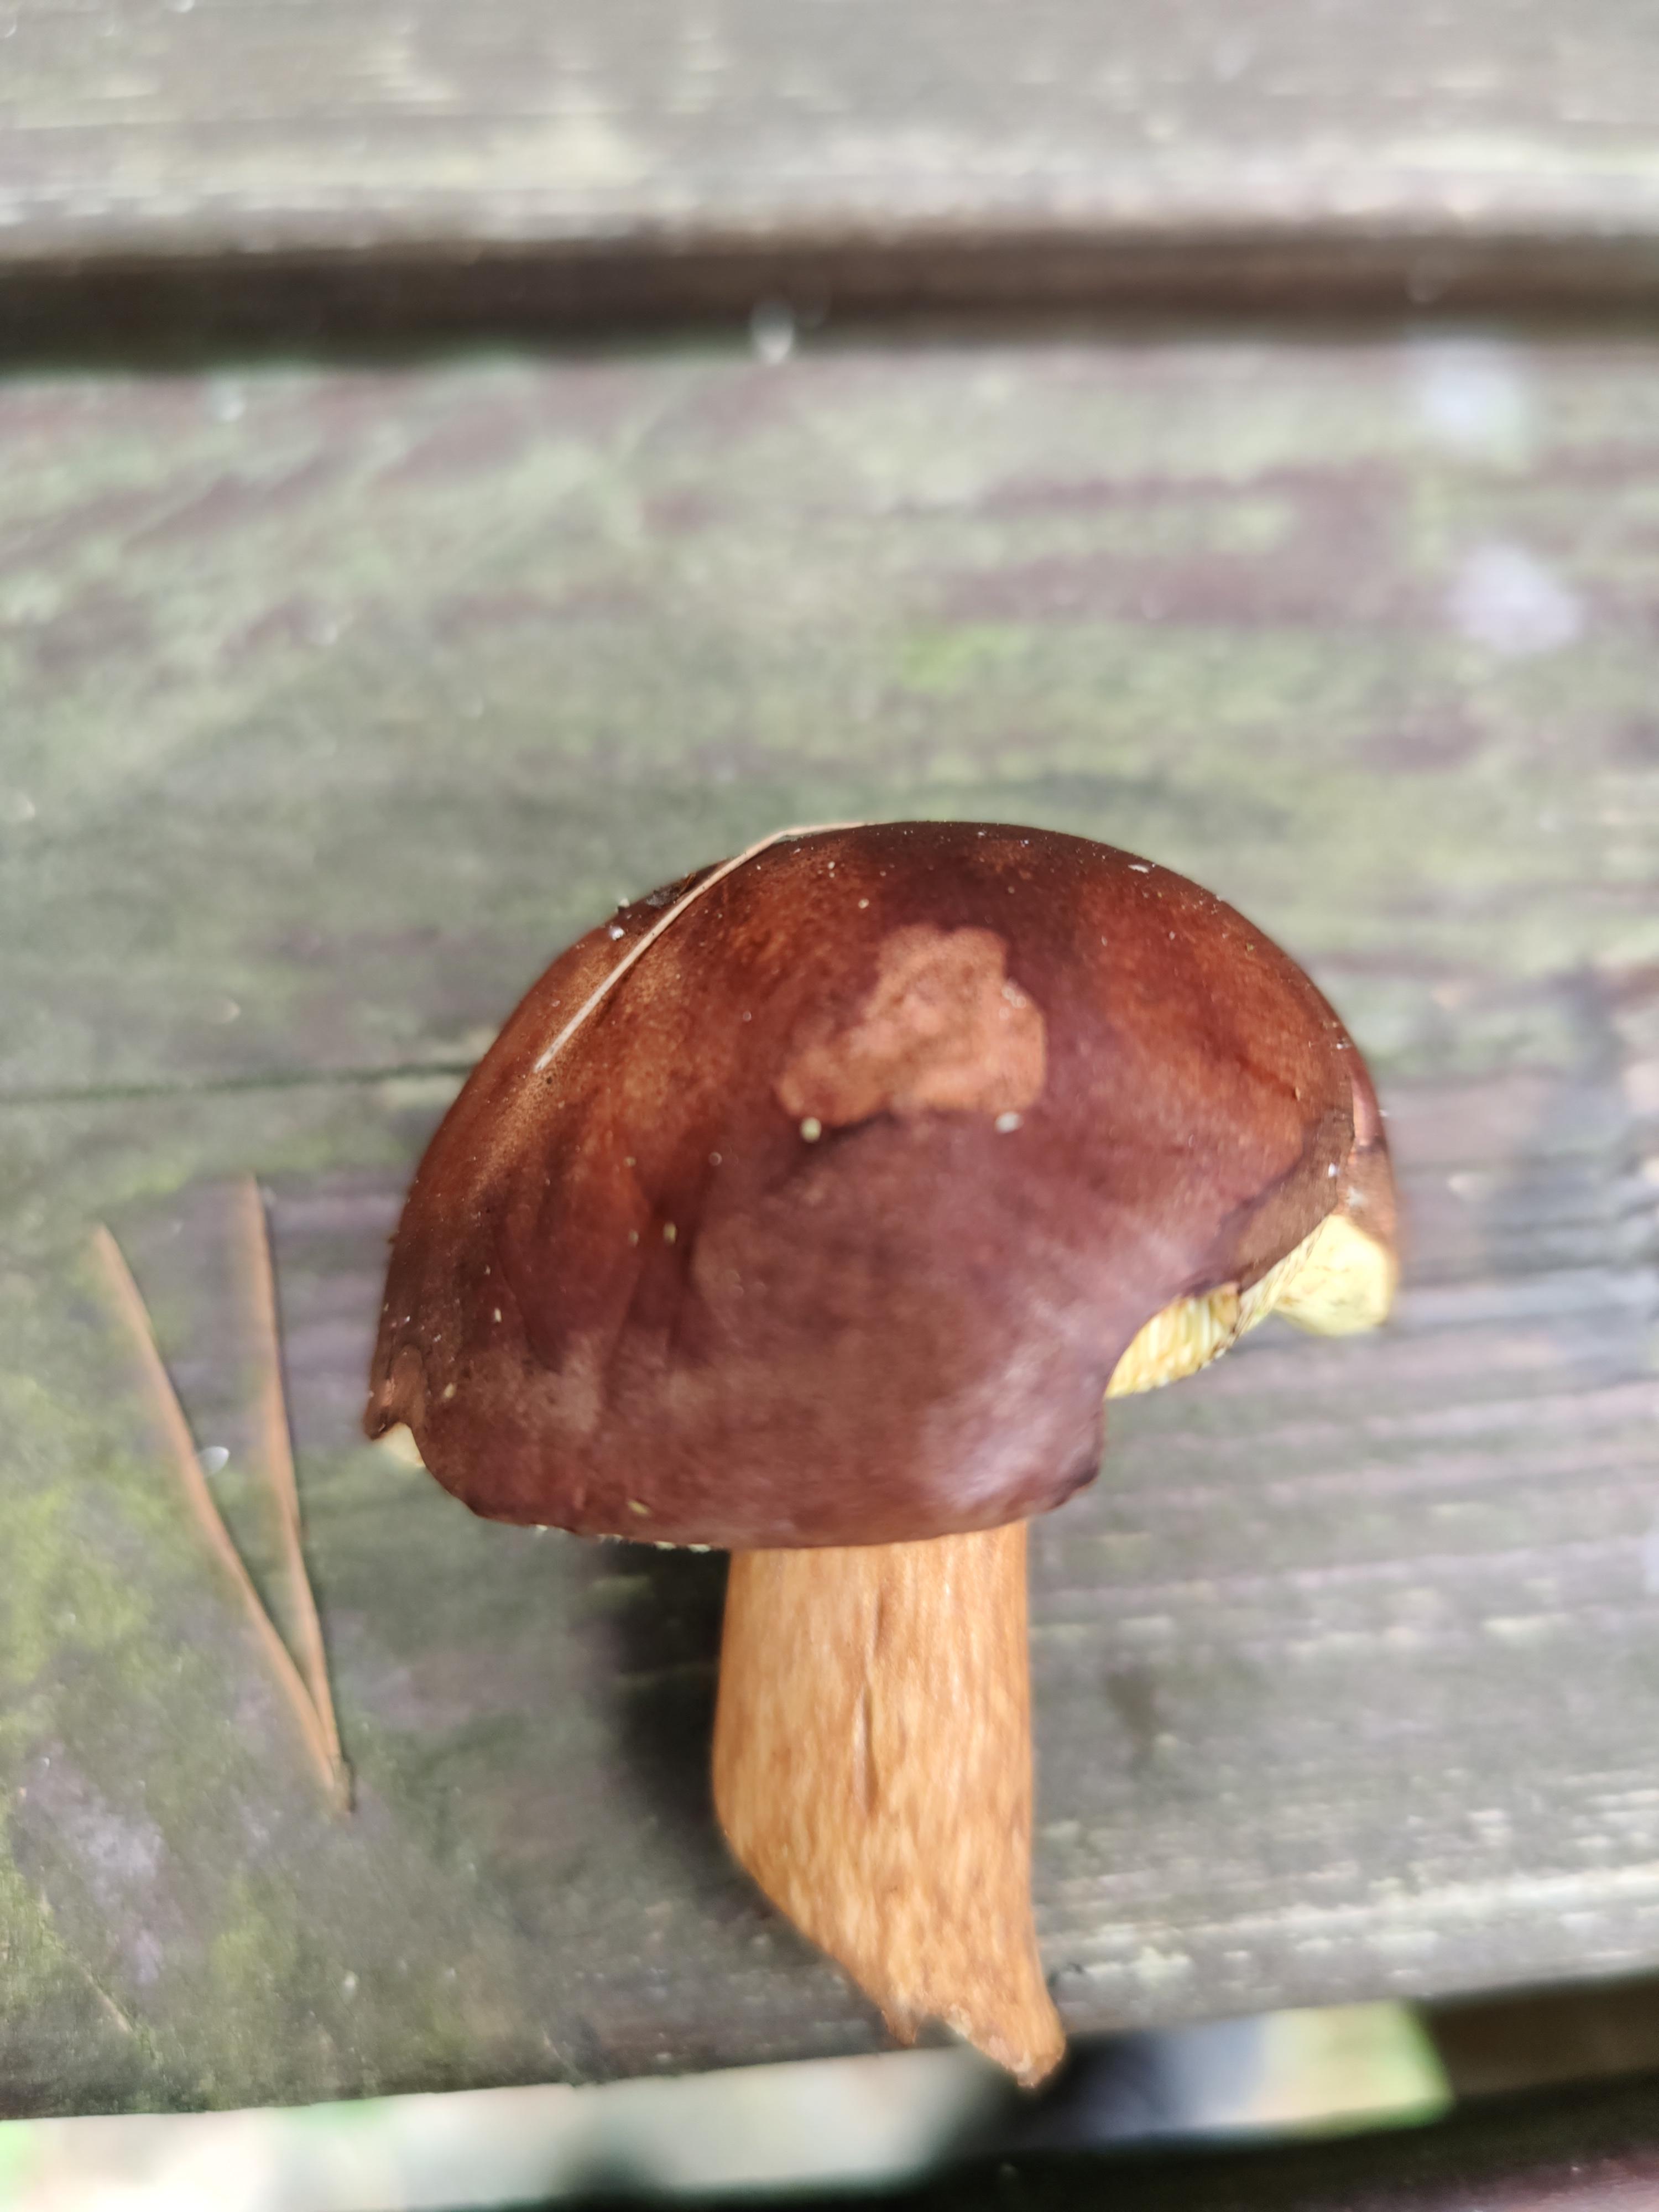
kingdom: Fungi
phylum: Basidiomycota
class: Agaricomycetes
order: Boletales
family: Boletaceae
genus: Imleria
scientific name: Imleria badia
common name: brunstokket rørhat
